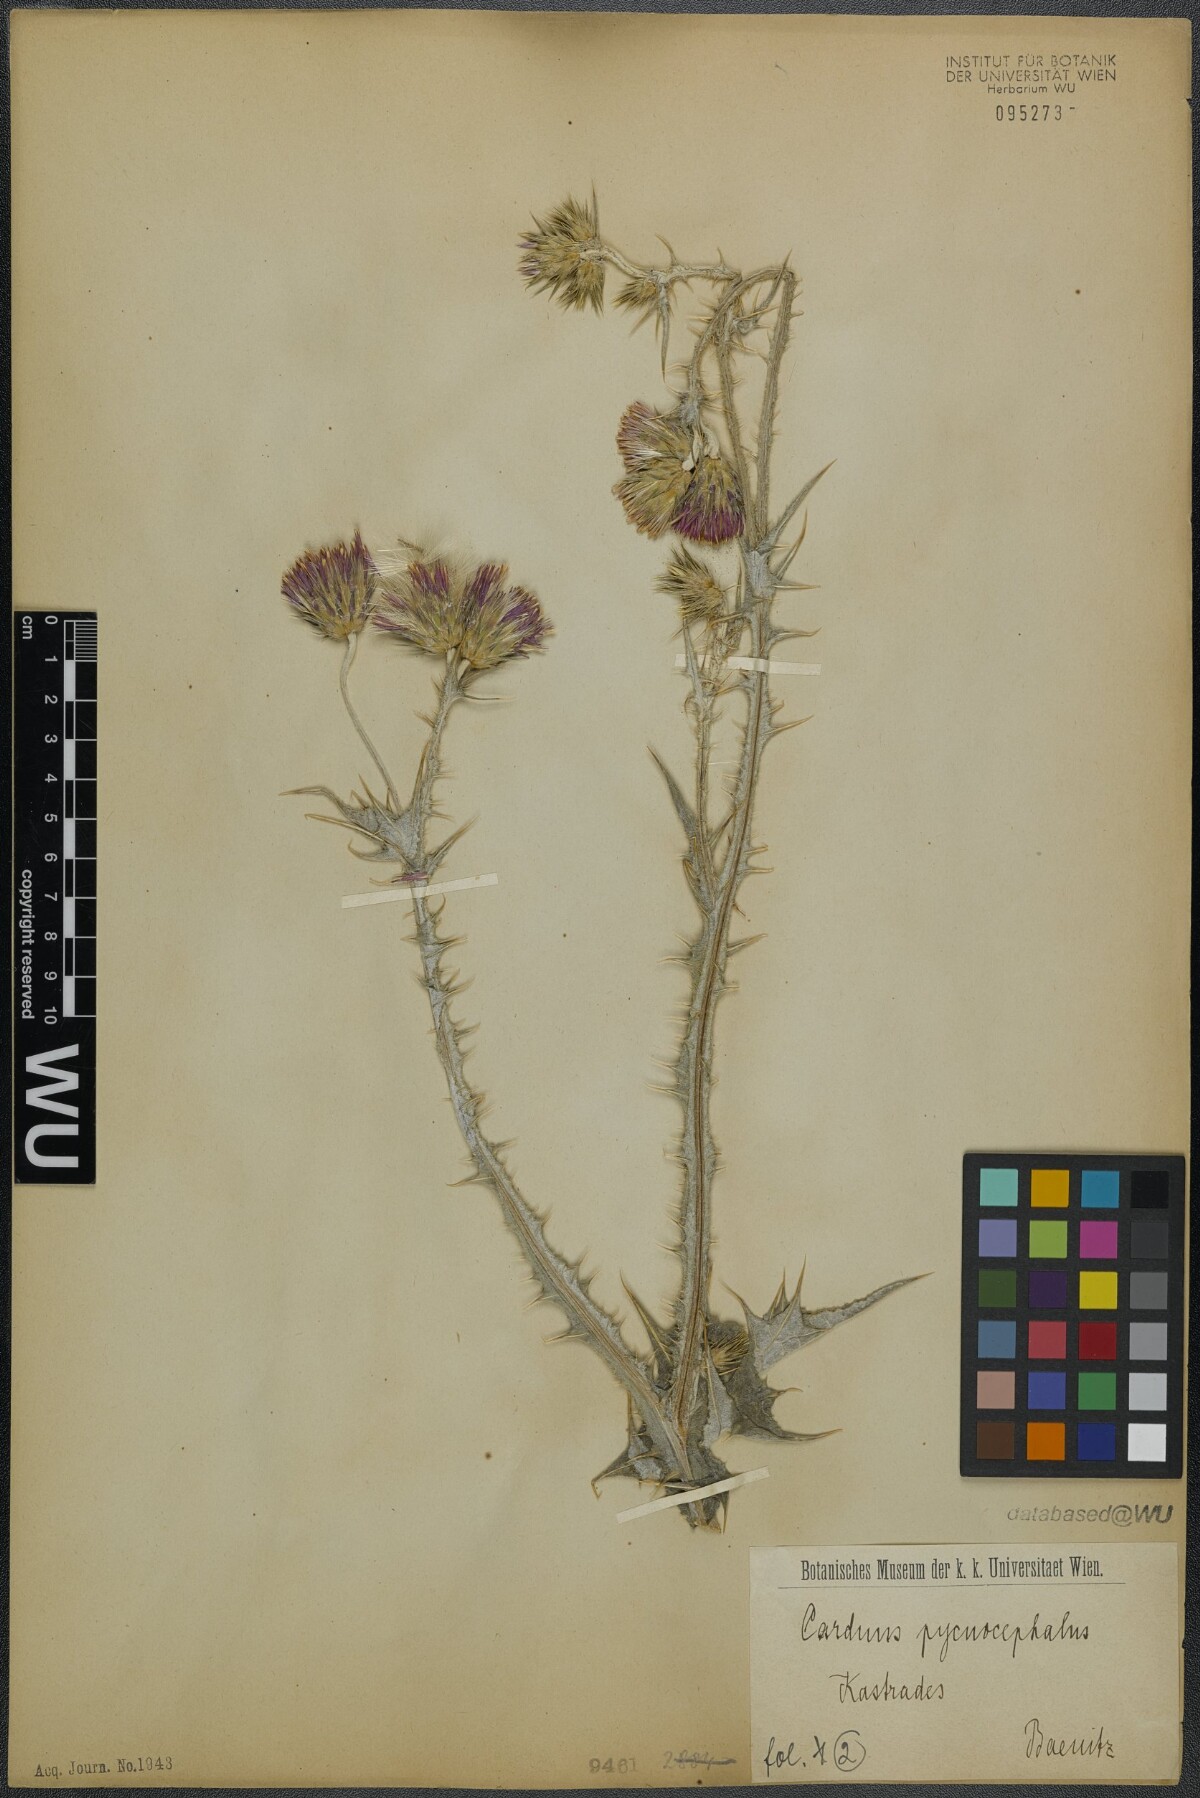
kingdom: Plantae
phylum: Tracheophyta
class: Magnoliopsida
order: Asterales
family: Asteraceae
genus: Carduus
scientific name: Carduus pycnocephalus
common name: Plymouth thistle
